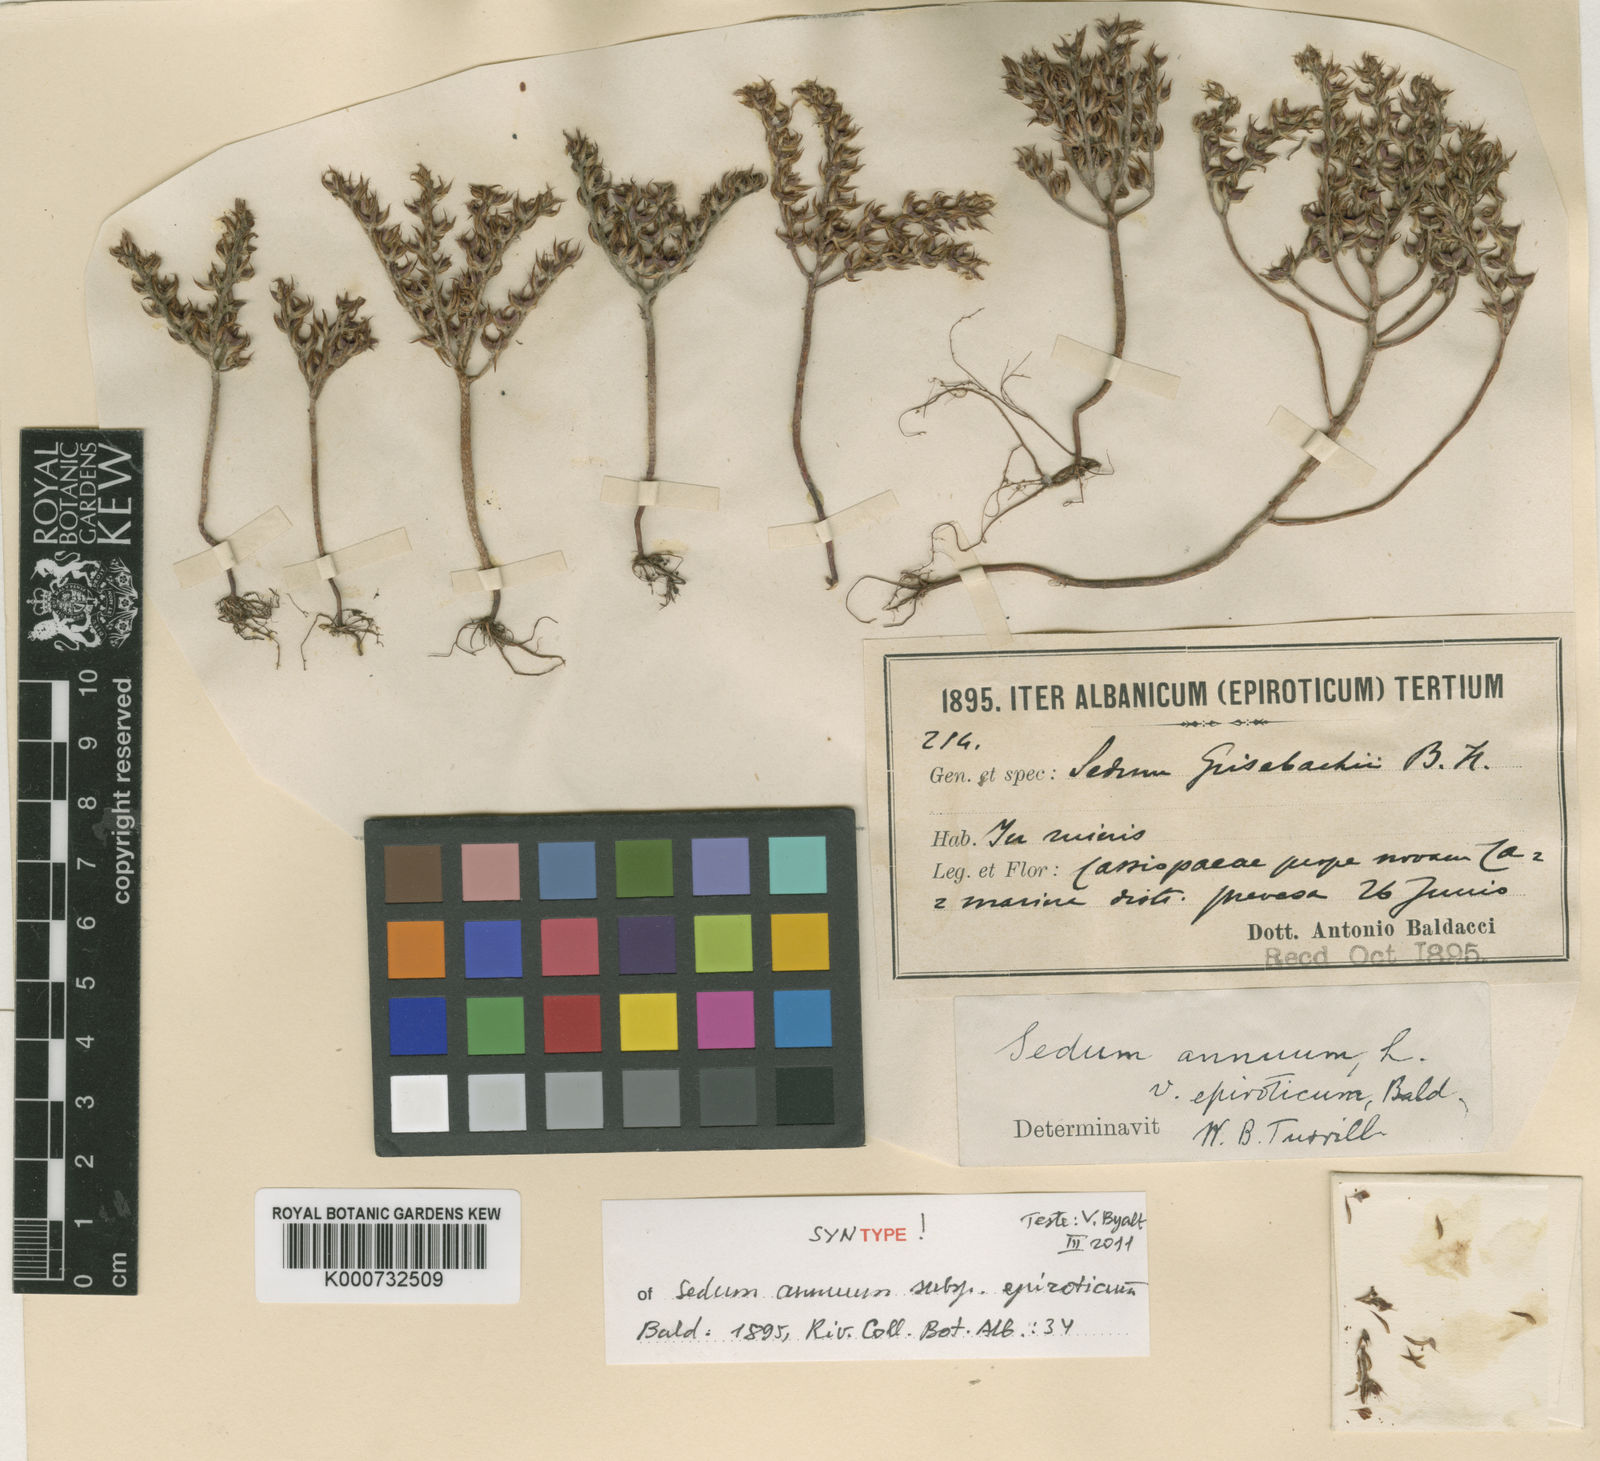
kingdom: Plantae
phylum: Tracheophyta
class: Magnoliopsida
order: Saxifragales
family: Crassulaceae
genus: Sedum
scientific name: Sedum annuum
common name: Annual stonecrop
